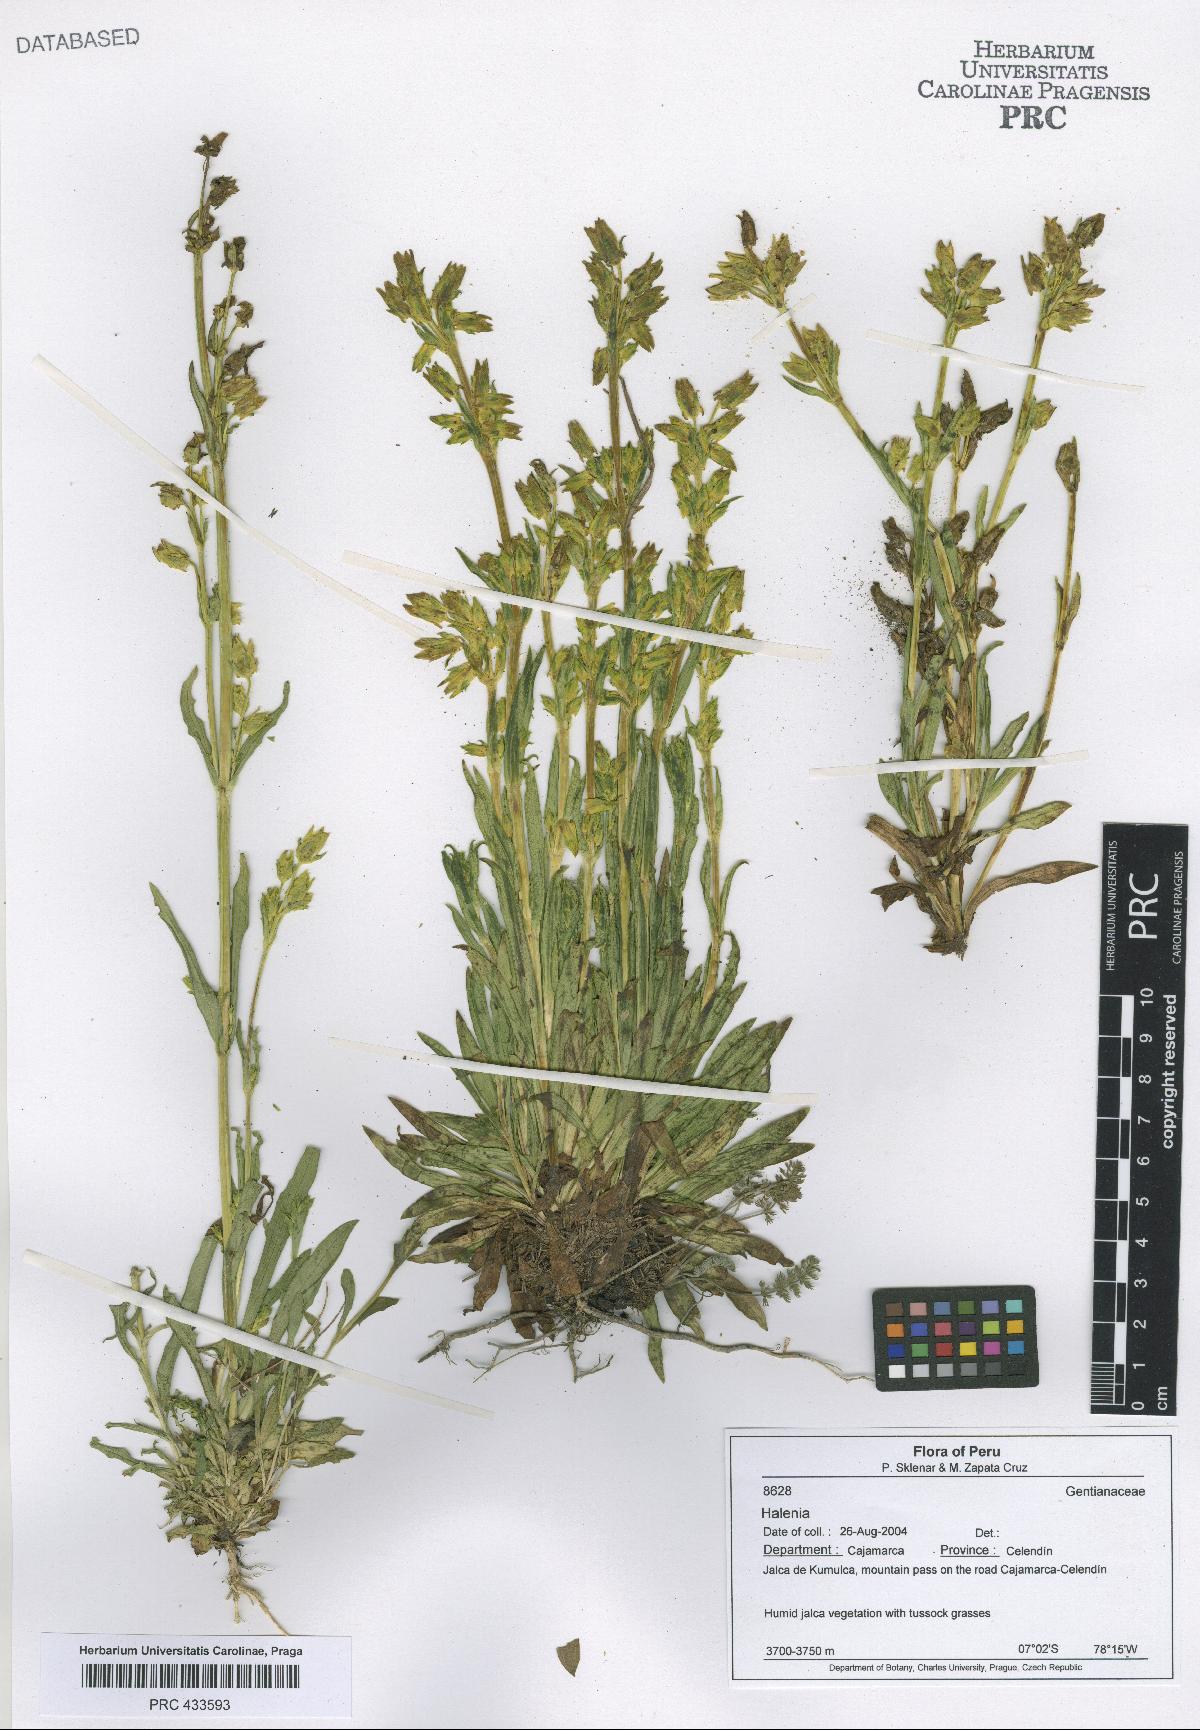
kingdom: Plantae
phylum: Tracheophyta
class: Magnoliopsida
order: Gentianales
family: Gentianaceae
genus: Halenia
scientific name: Halenia
